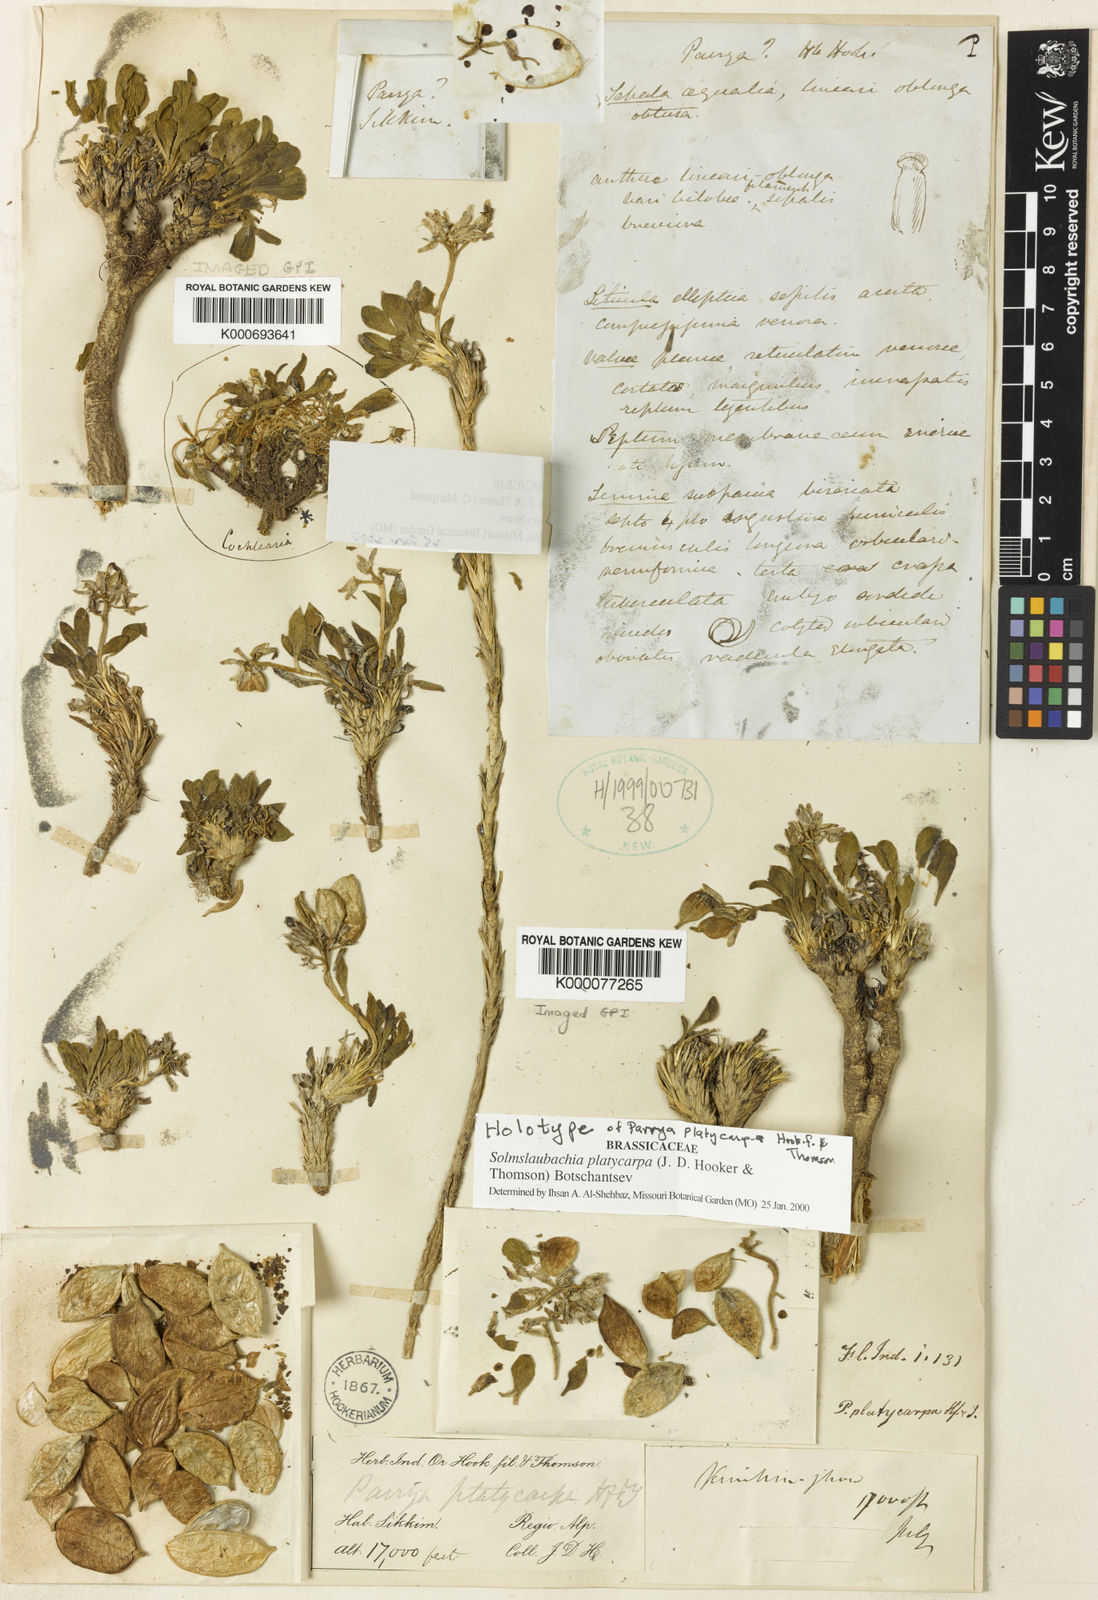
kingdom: Plantae
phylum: Tracheophyta
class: Magnoliopsida
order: Brassicales
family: Brassicaceae
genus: Solms-laubachia
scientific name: Solms-laubachia platycarpa
